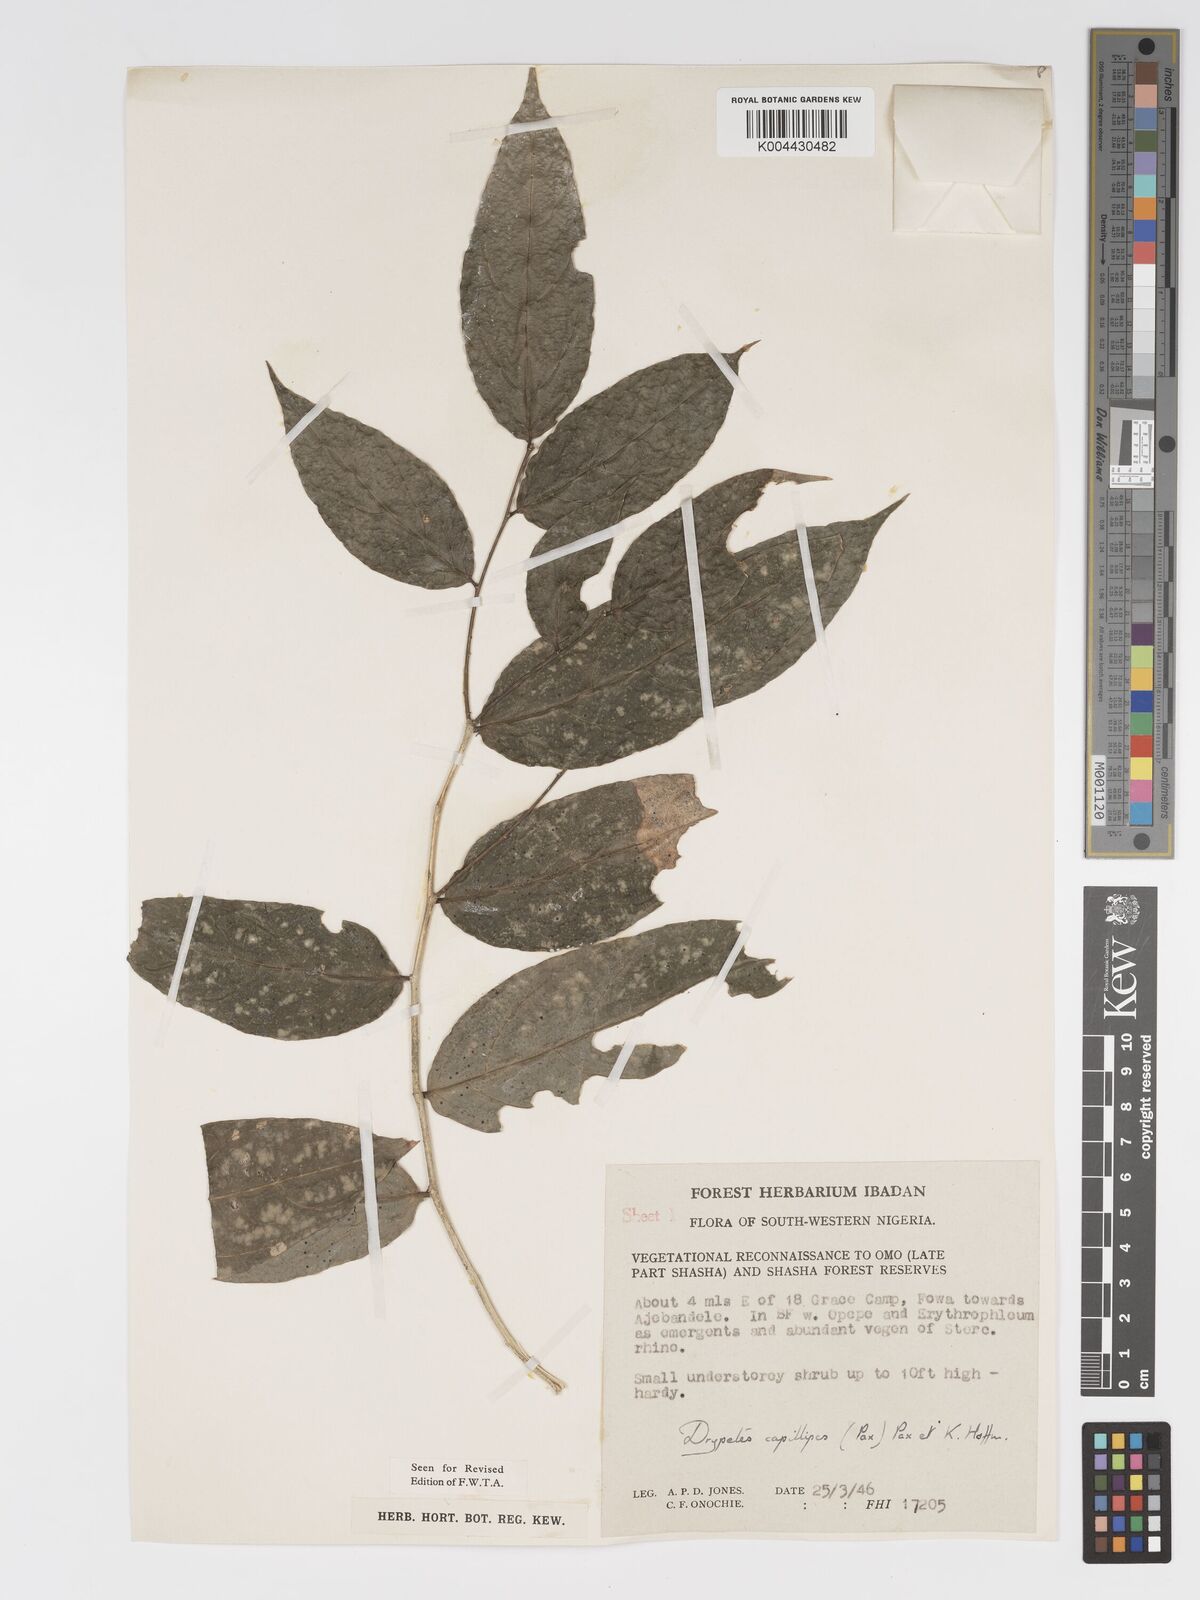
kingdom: Plantae
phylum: Tracheophyta
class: Magnoliopsida
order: Malpighiales
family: Putranjivaceae
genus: Drypetes
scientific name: Drypetes capillipes
